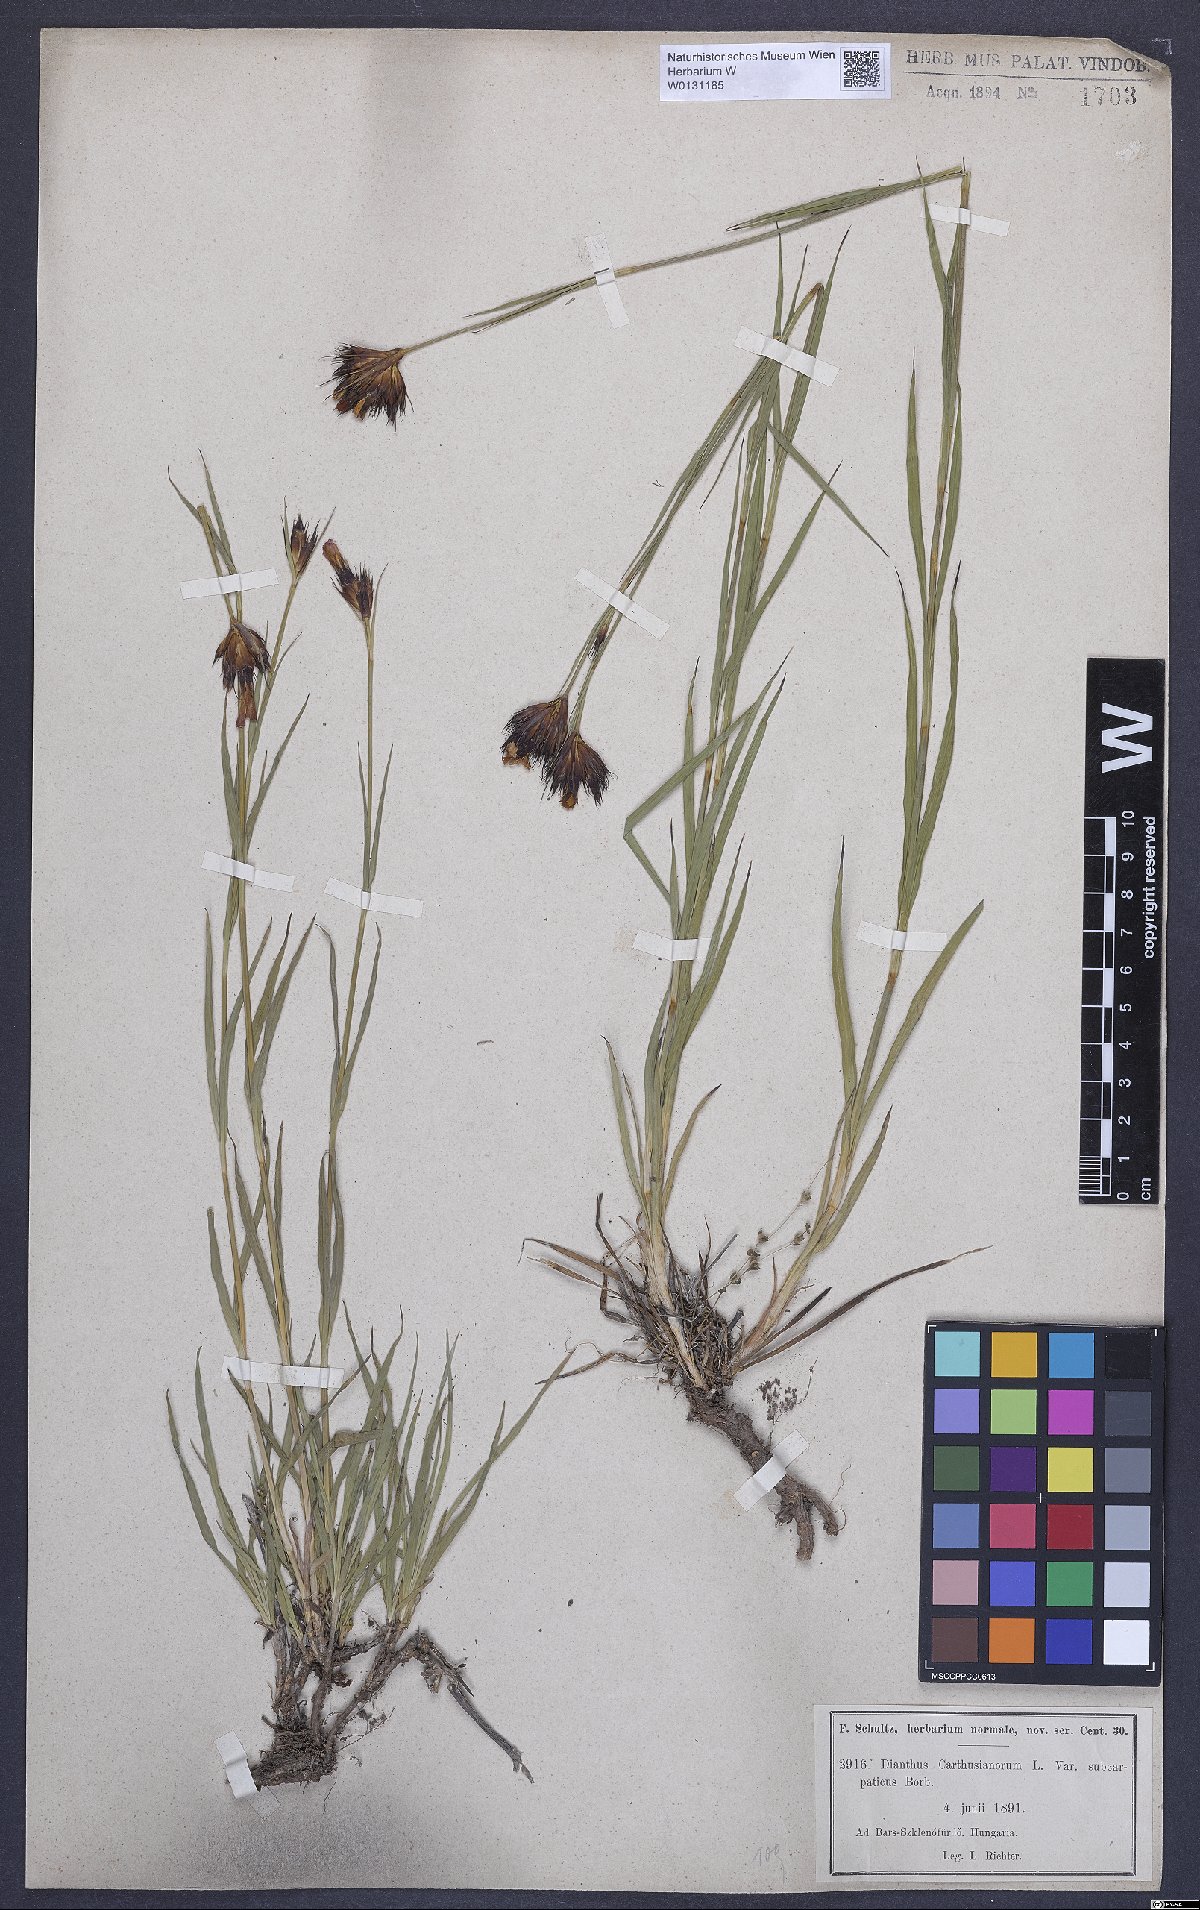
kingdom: Plantae
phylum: Tracheophyta
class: Magnoliopsida
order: Caryophyllales
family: Caryophyllaceae
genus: Dianthus
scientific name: Dianthus carthusianorum
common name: Carthusian pink
